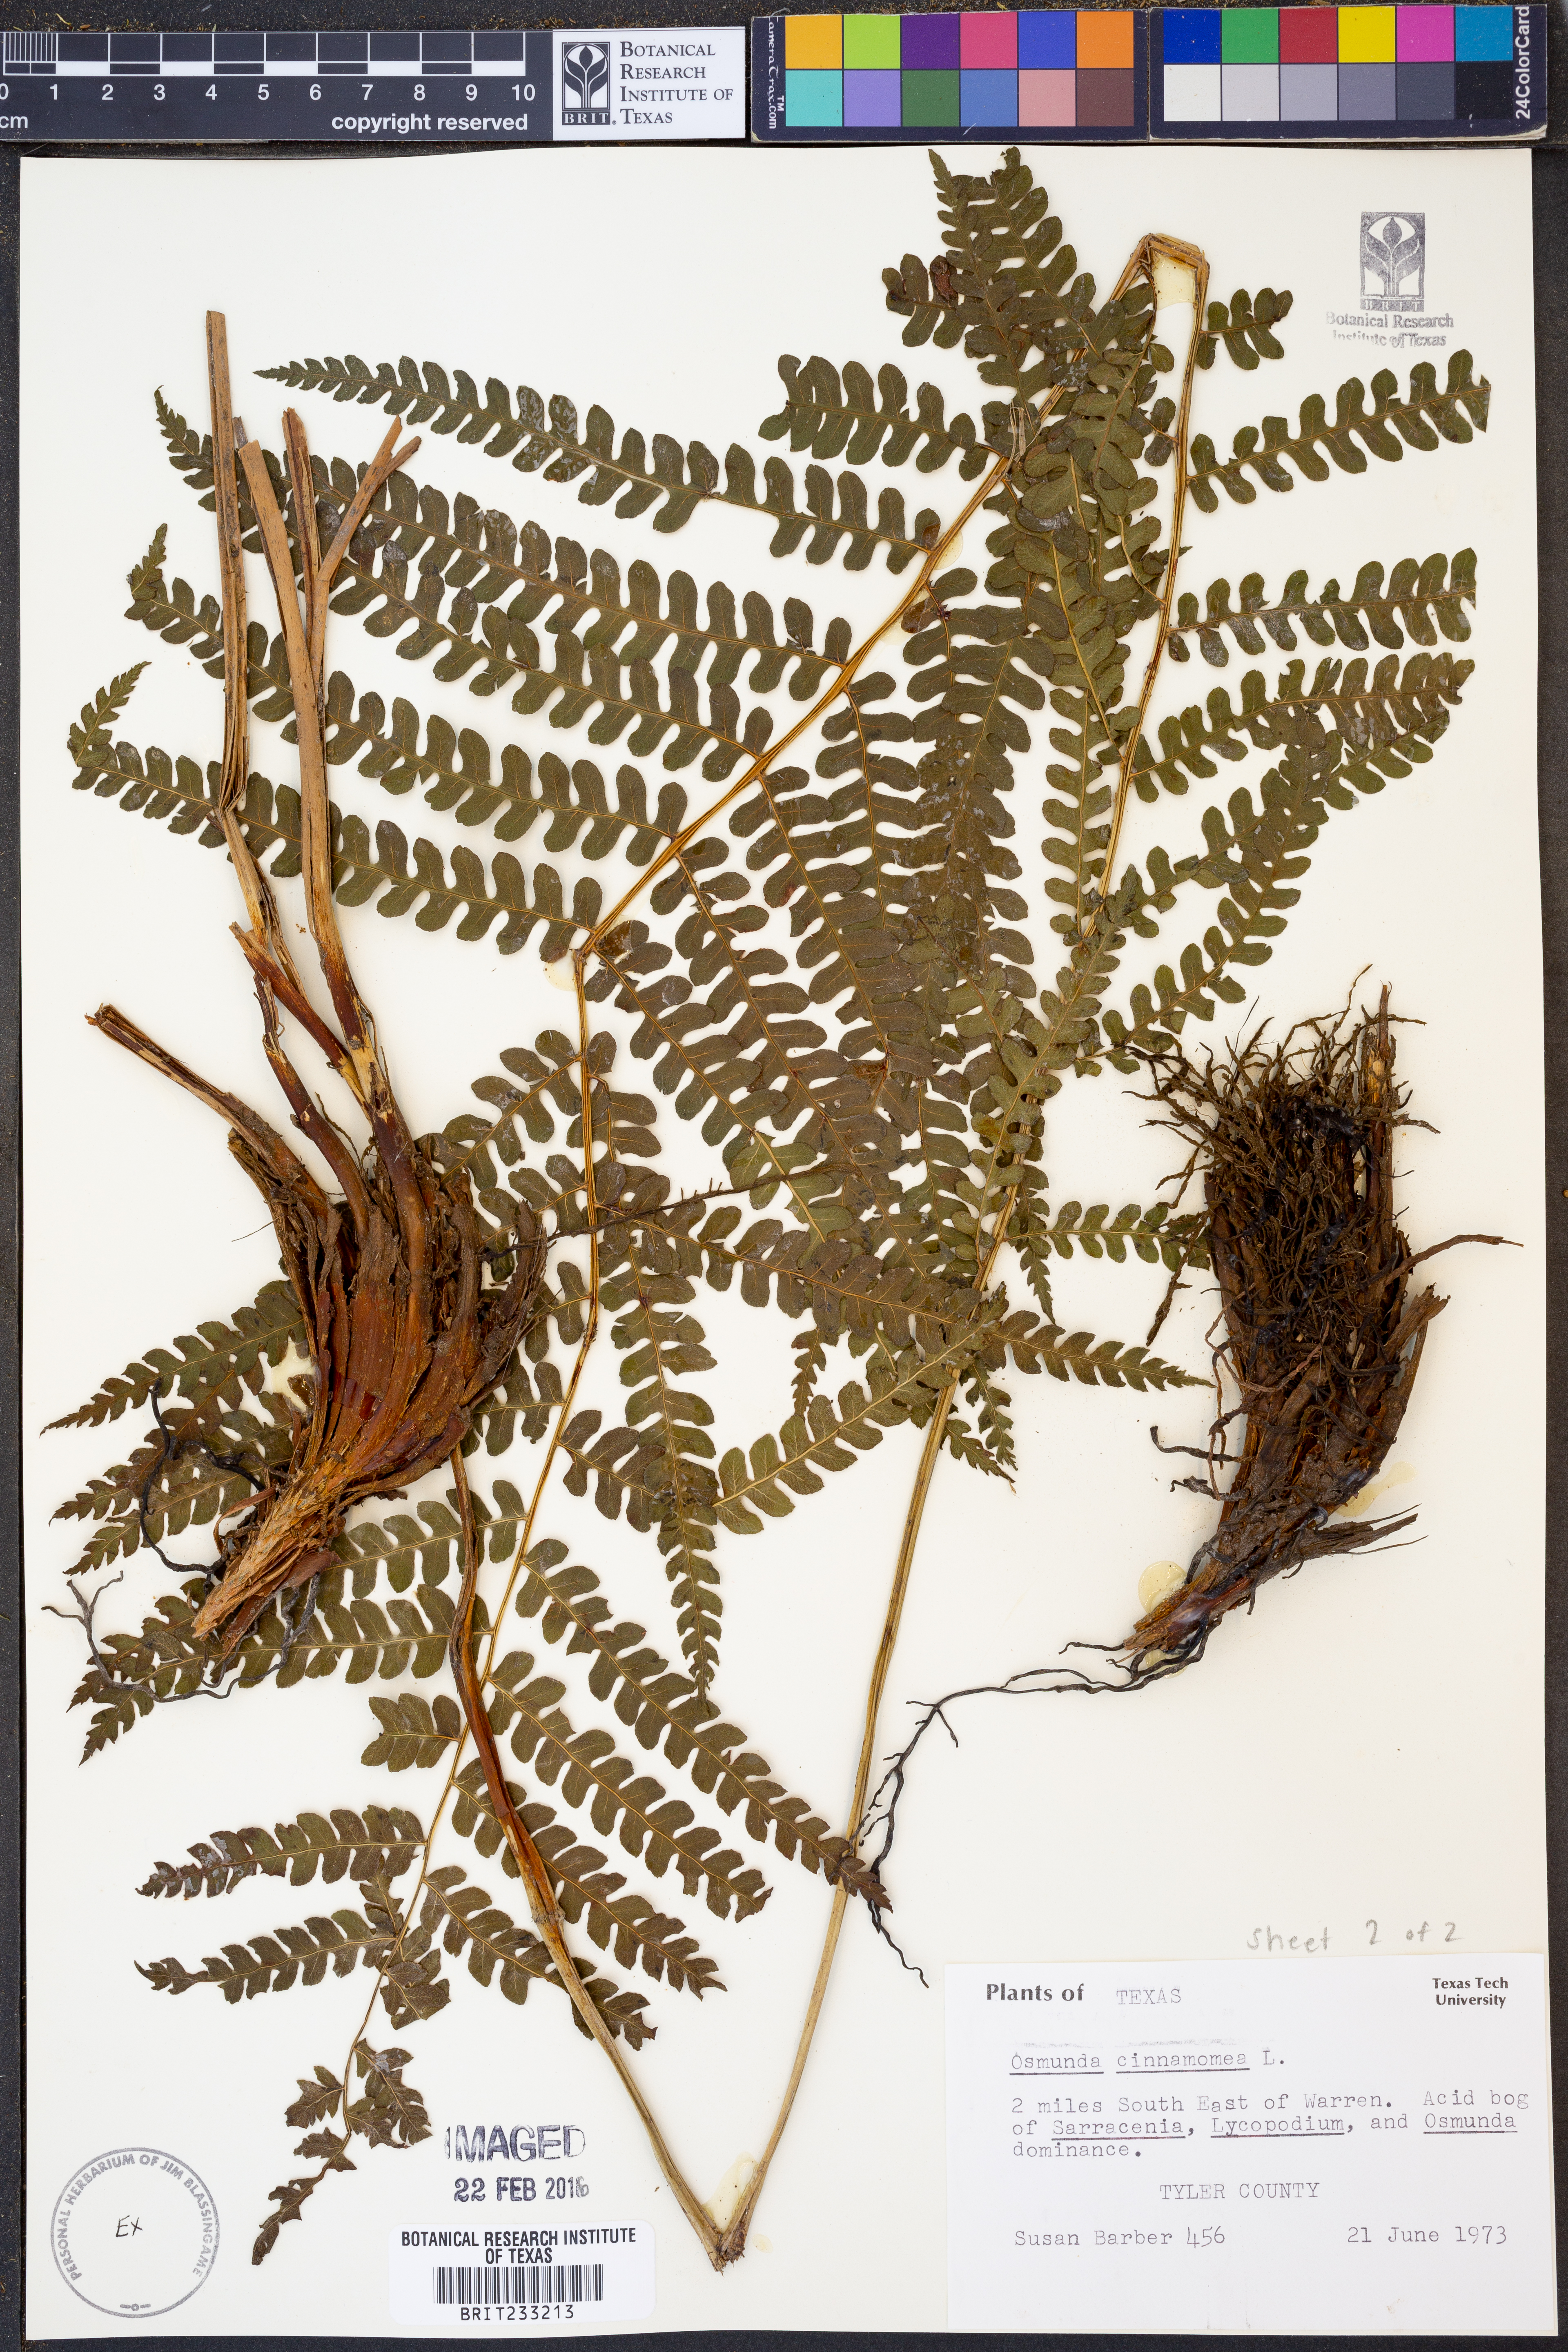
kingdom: Plantae
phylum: Tracheophyta
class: Polypodiopsida
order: Osmundales
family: Osmundaceae
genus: Osmundastrum
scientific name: Osmundastrum cinnamomeum
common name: Cinnamon fern
